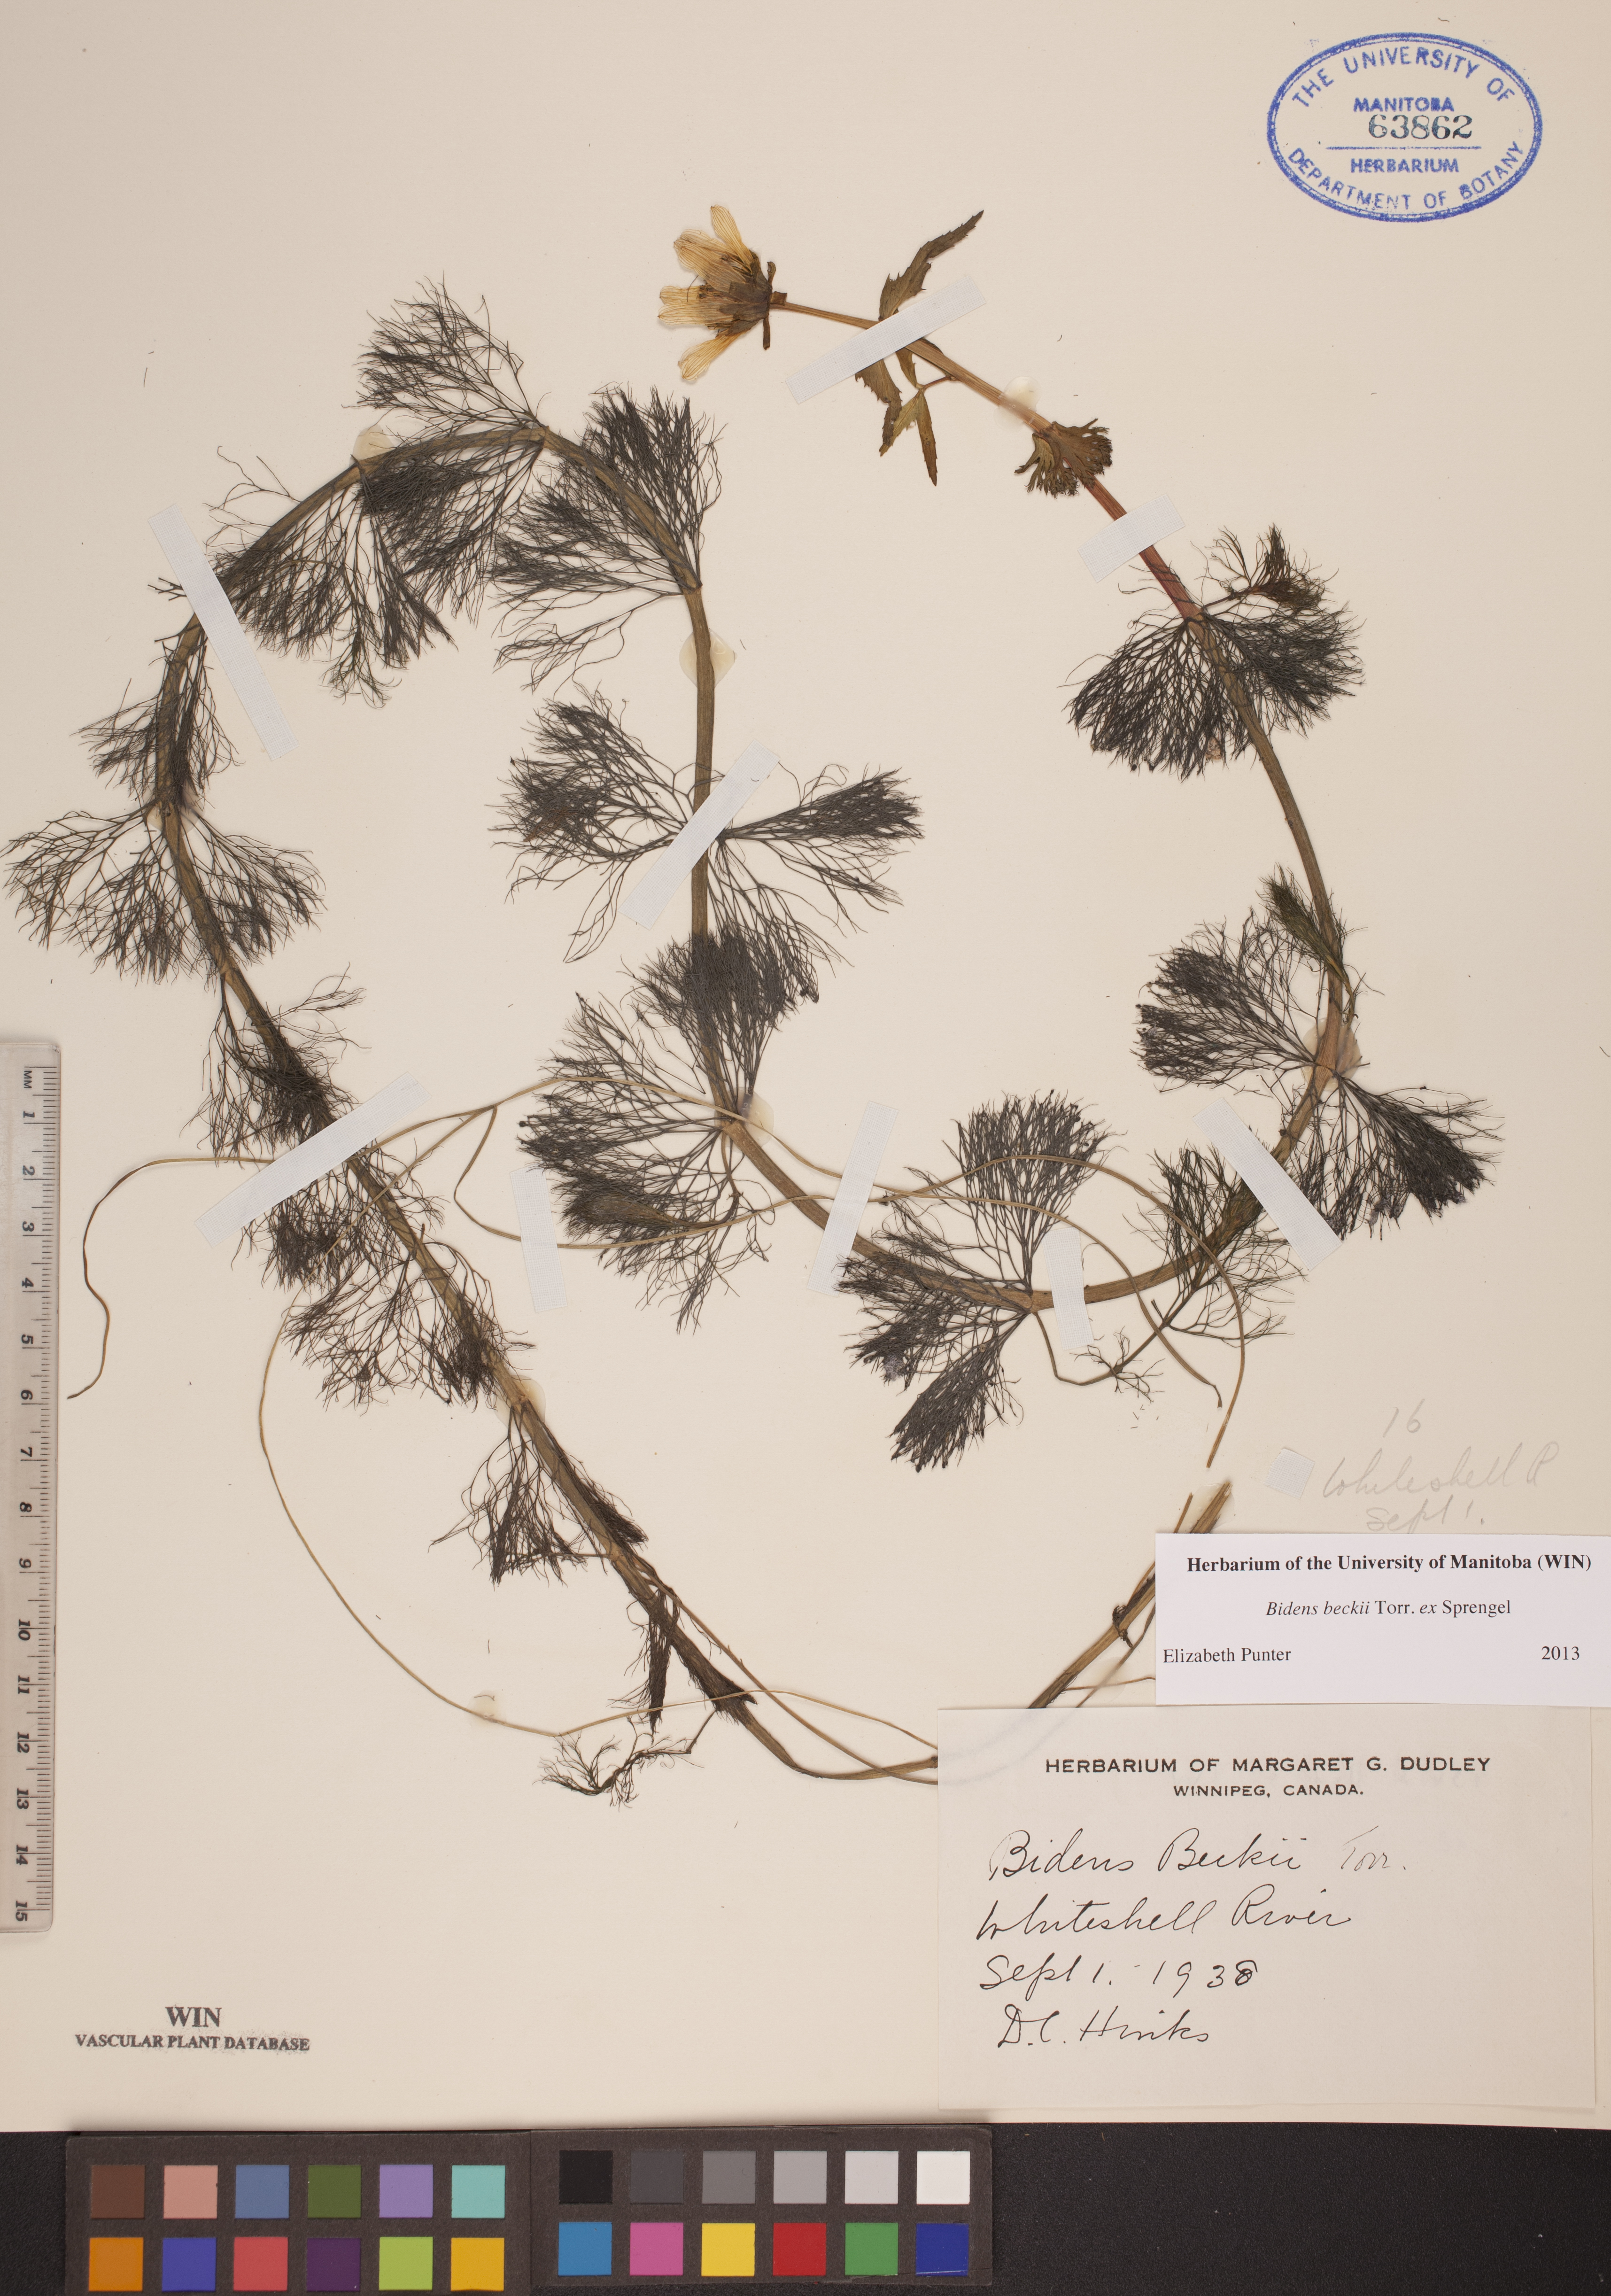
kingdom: Plantae
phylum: Tracheophyta
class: Magnoliopsida
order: Asterales
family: Asteraceae
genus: Bidens
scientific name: Bidens beckii
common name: Beck's beggarticks
